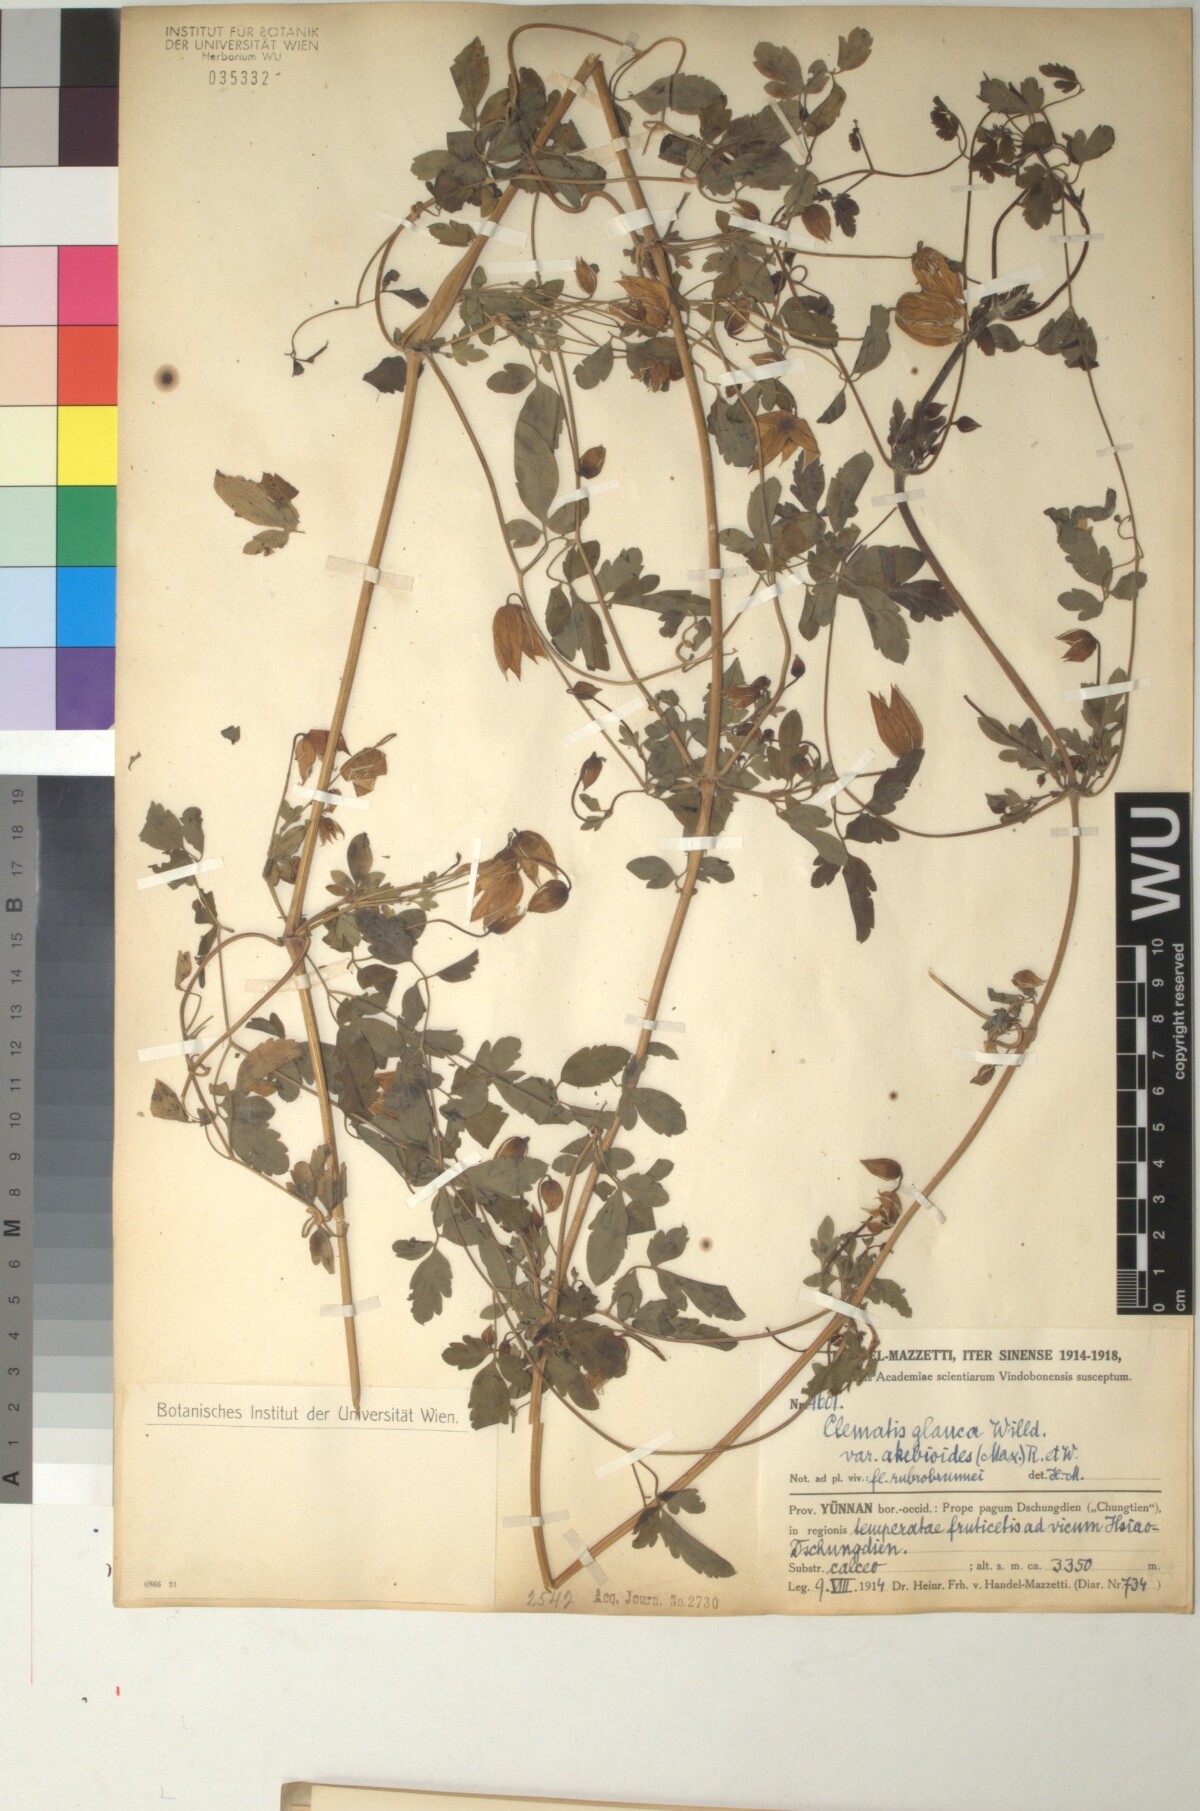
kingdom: Plantae
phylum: Tracheophyta
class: Magnoliopsida
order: Ranunculales
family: Ranunculaceae
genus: Clematis
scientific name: Clematis akebioides
